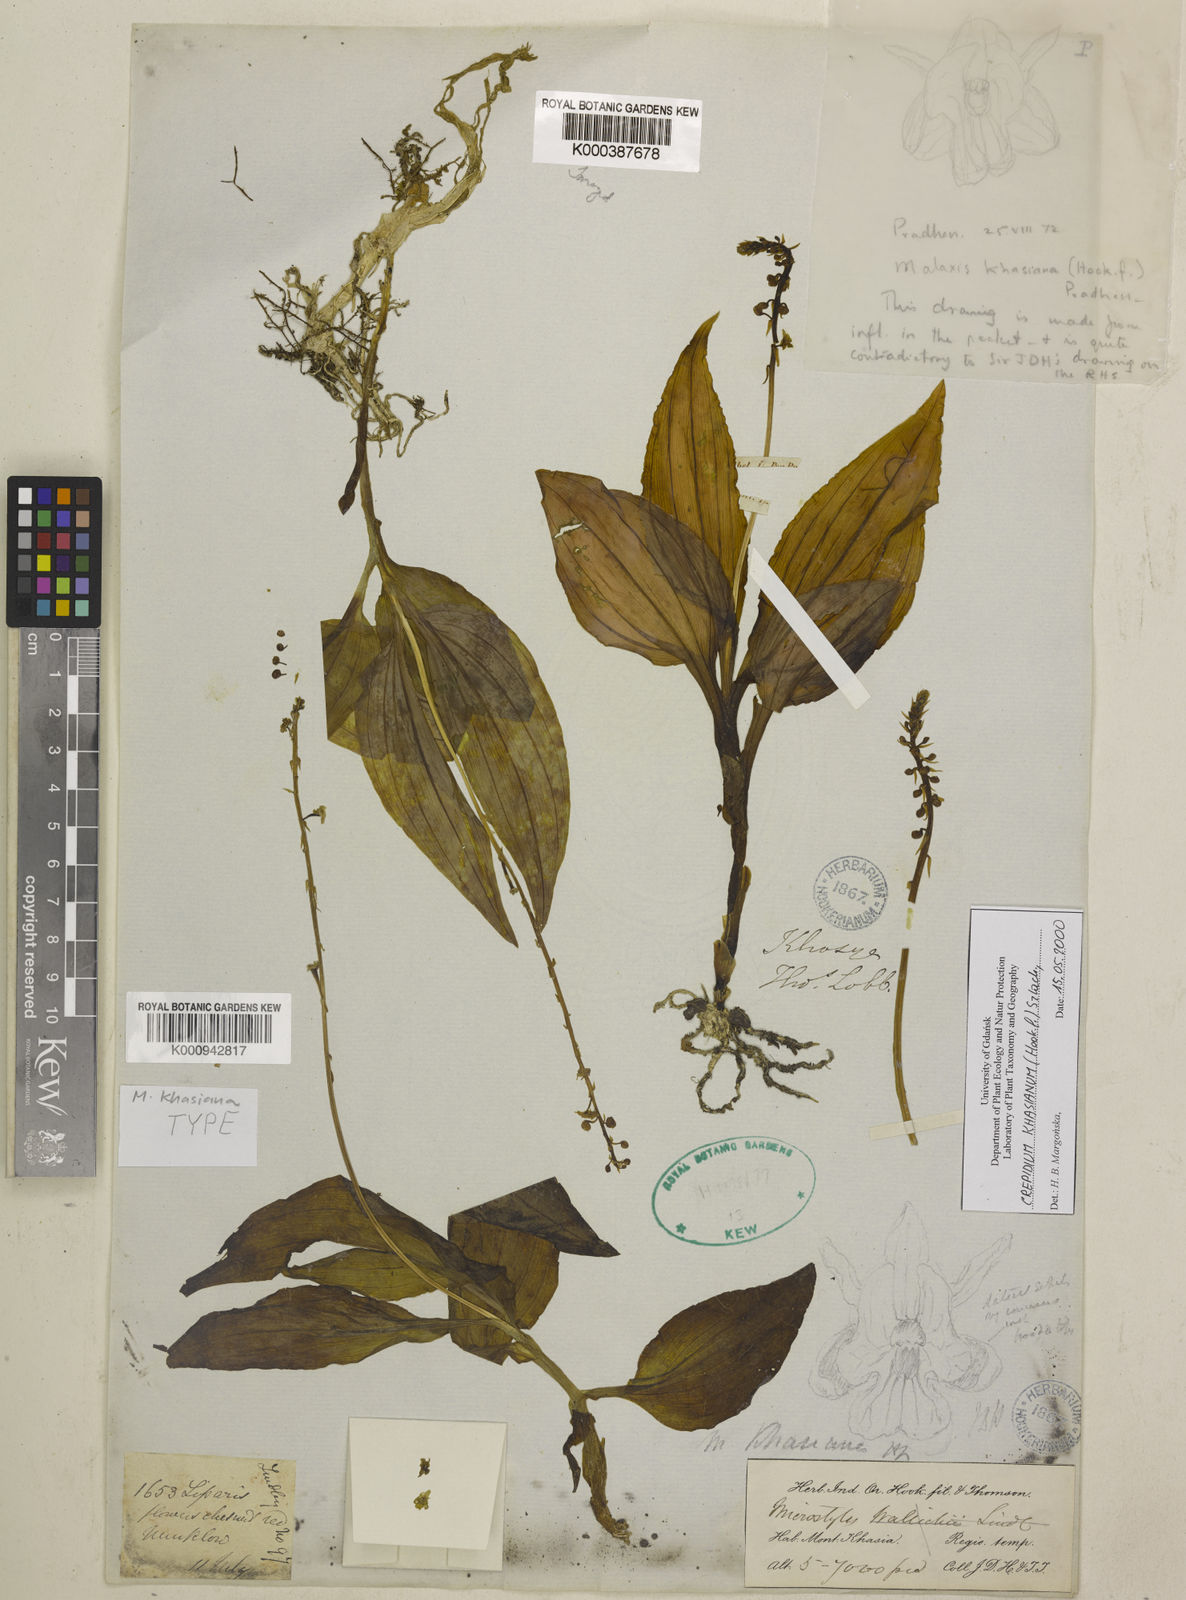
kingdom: Plantae
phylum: Tracheophyta
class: Liliopsida
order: Asparagales
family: Orchidaceae
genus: Crepidium
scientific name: Crepidium khasianum
